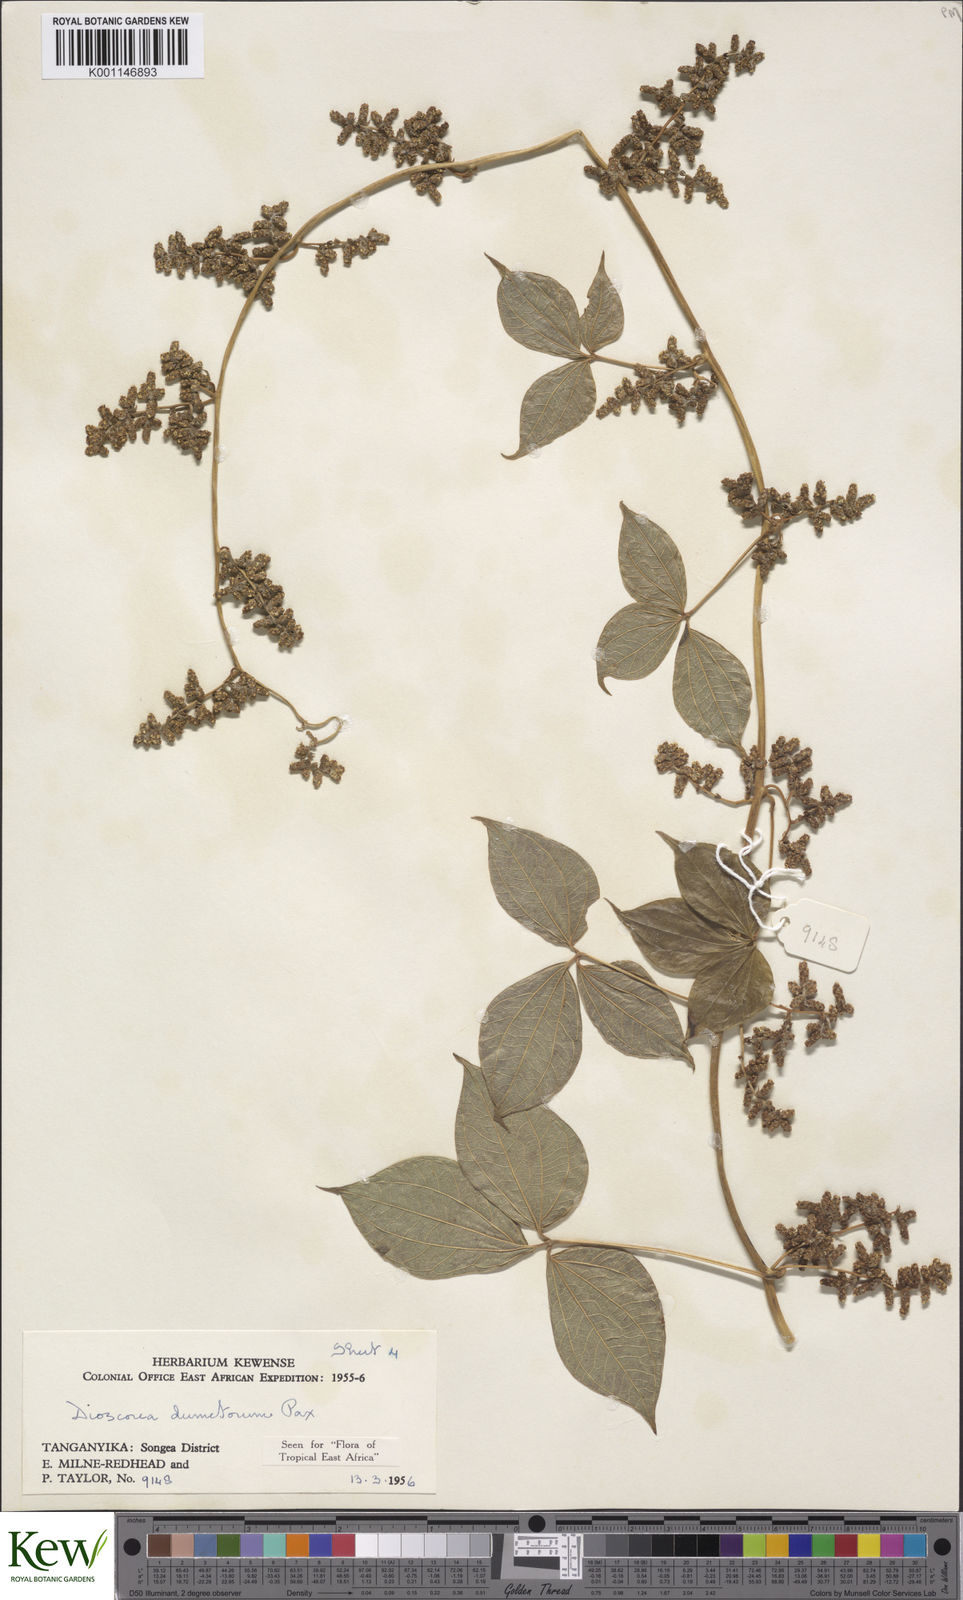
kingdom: Plantae
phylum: Tracheophyta
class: Liliopsida
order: Dioscoreales
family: Dioscoreaceae
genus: Dioscorea
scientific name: Dioscorea dumetorum
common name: African bitter yam
